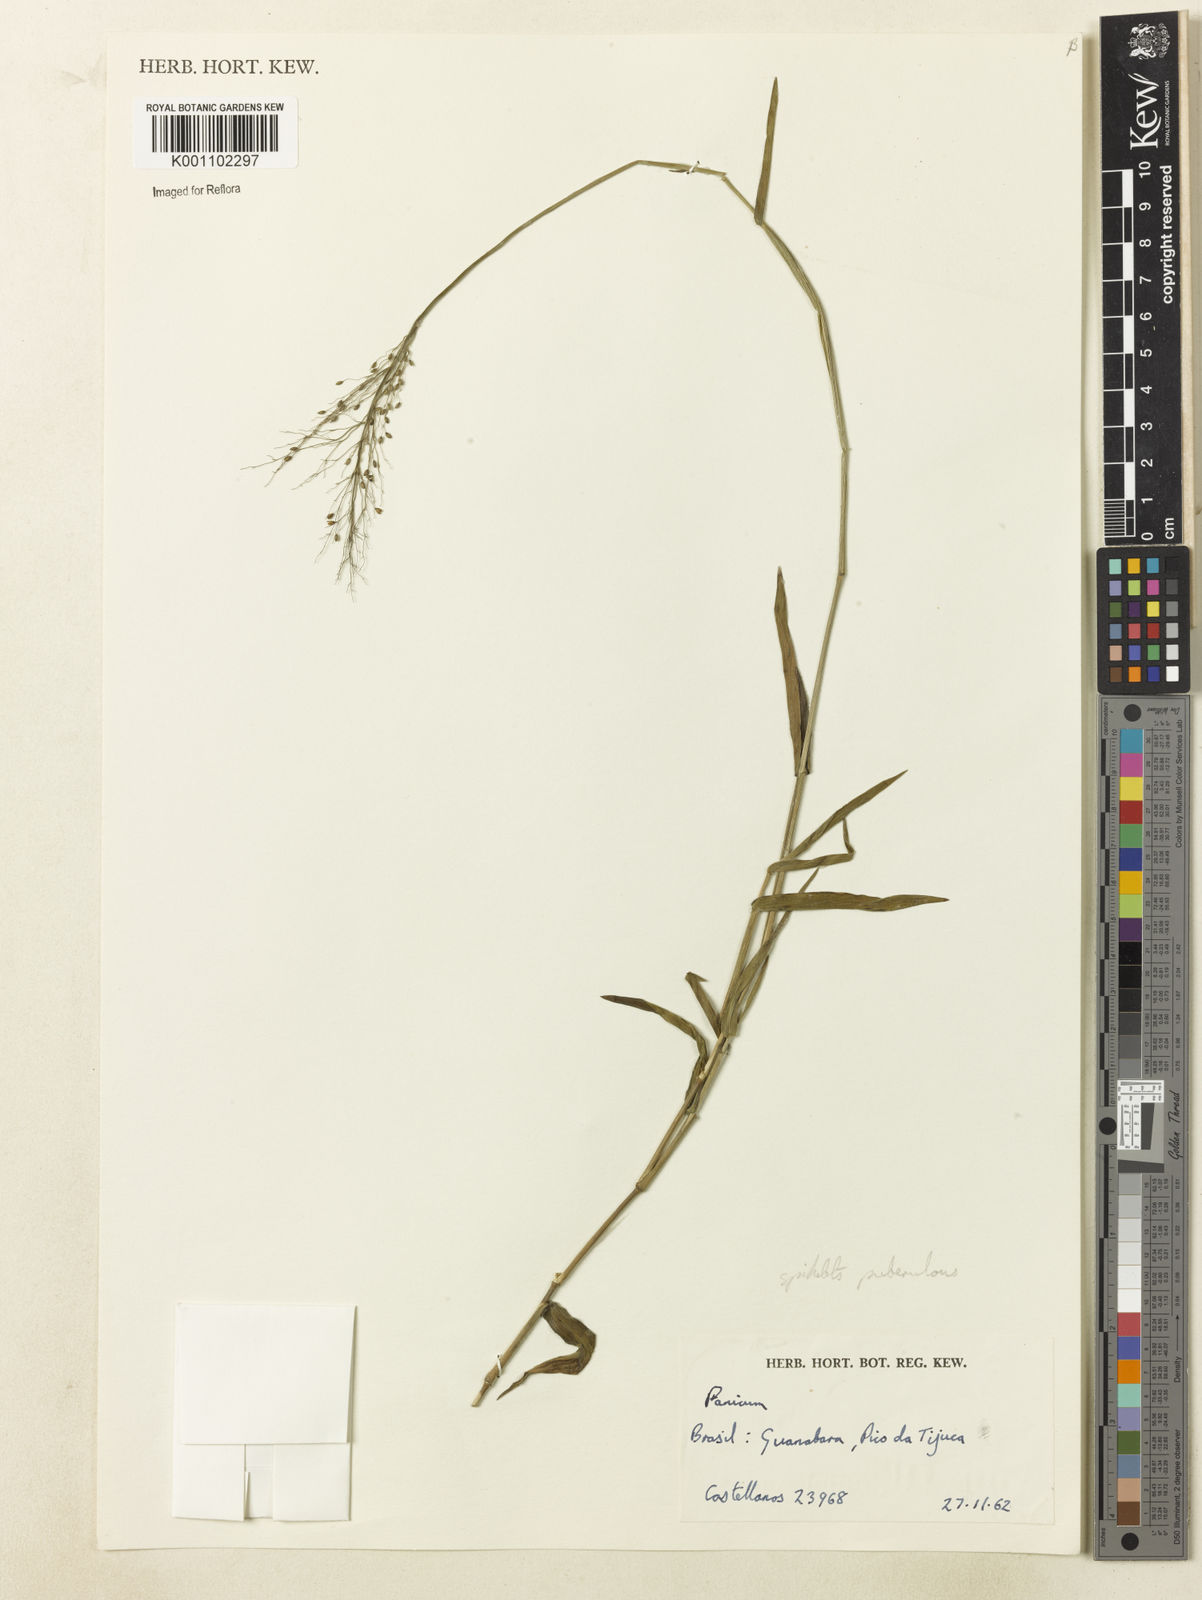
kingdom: Plantae
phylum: Tracheophyta
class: Liliopsida
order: Poales
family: Poaceae
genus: Dichanthelium
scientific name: Dichanthelium stigmosum
